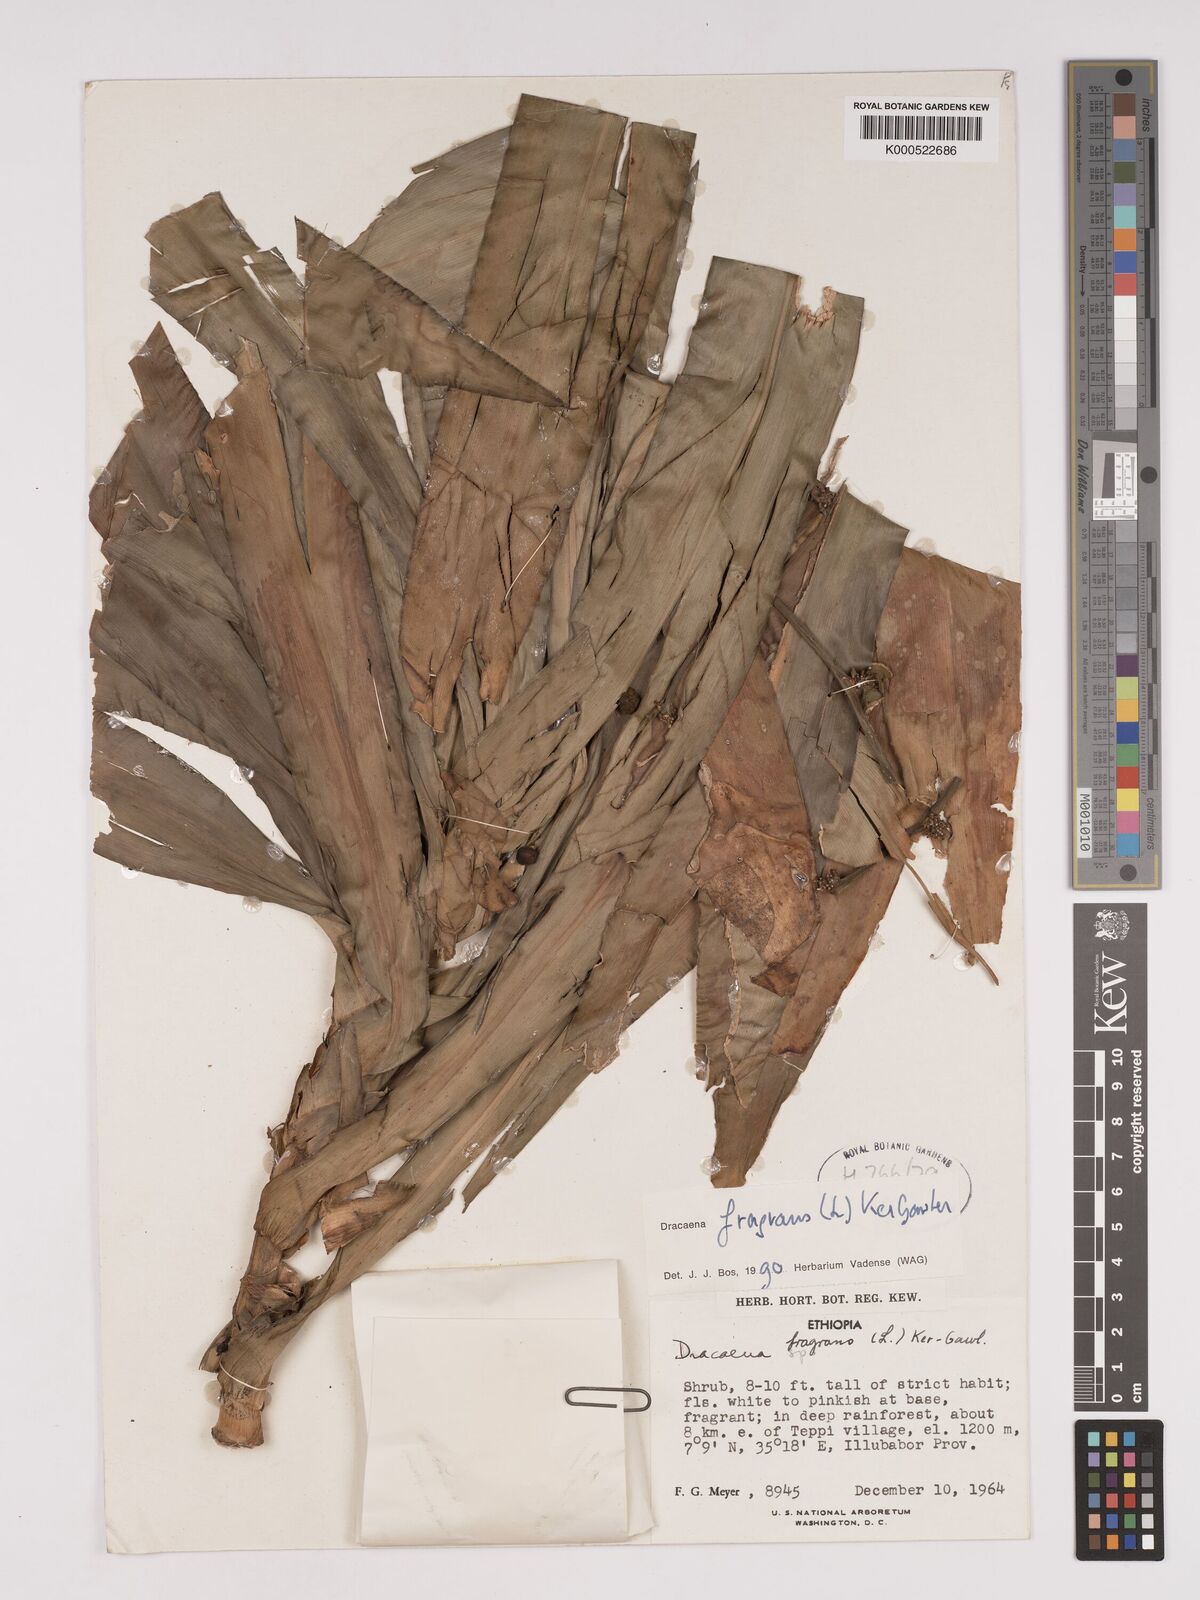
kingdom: Plantae
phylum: Tracheophyta
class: Liliopsida
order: Asparagales
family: Asparagaceae
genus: Dracaena
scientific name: Dracaena fragrans
